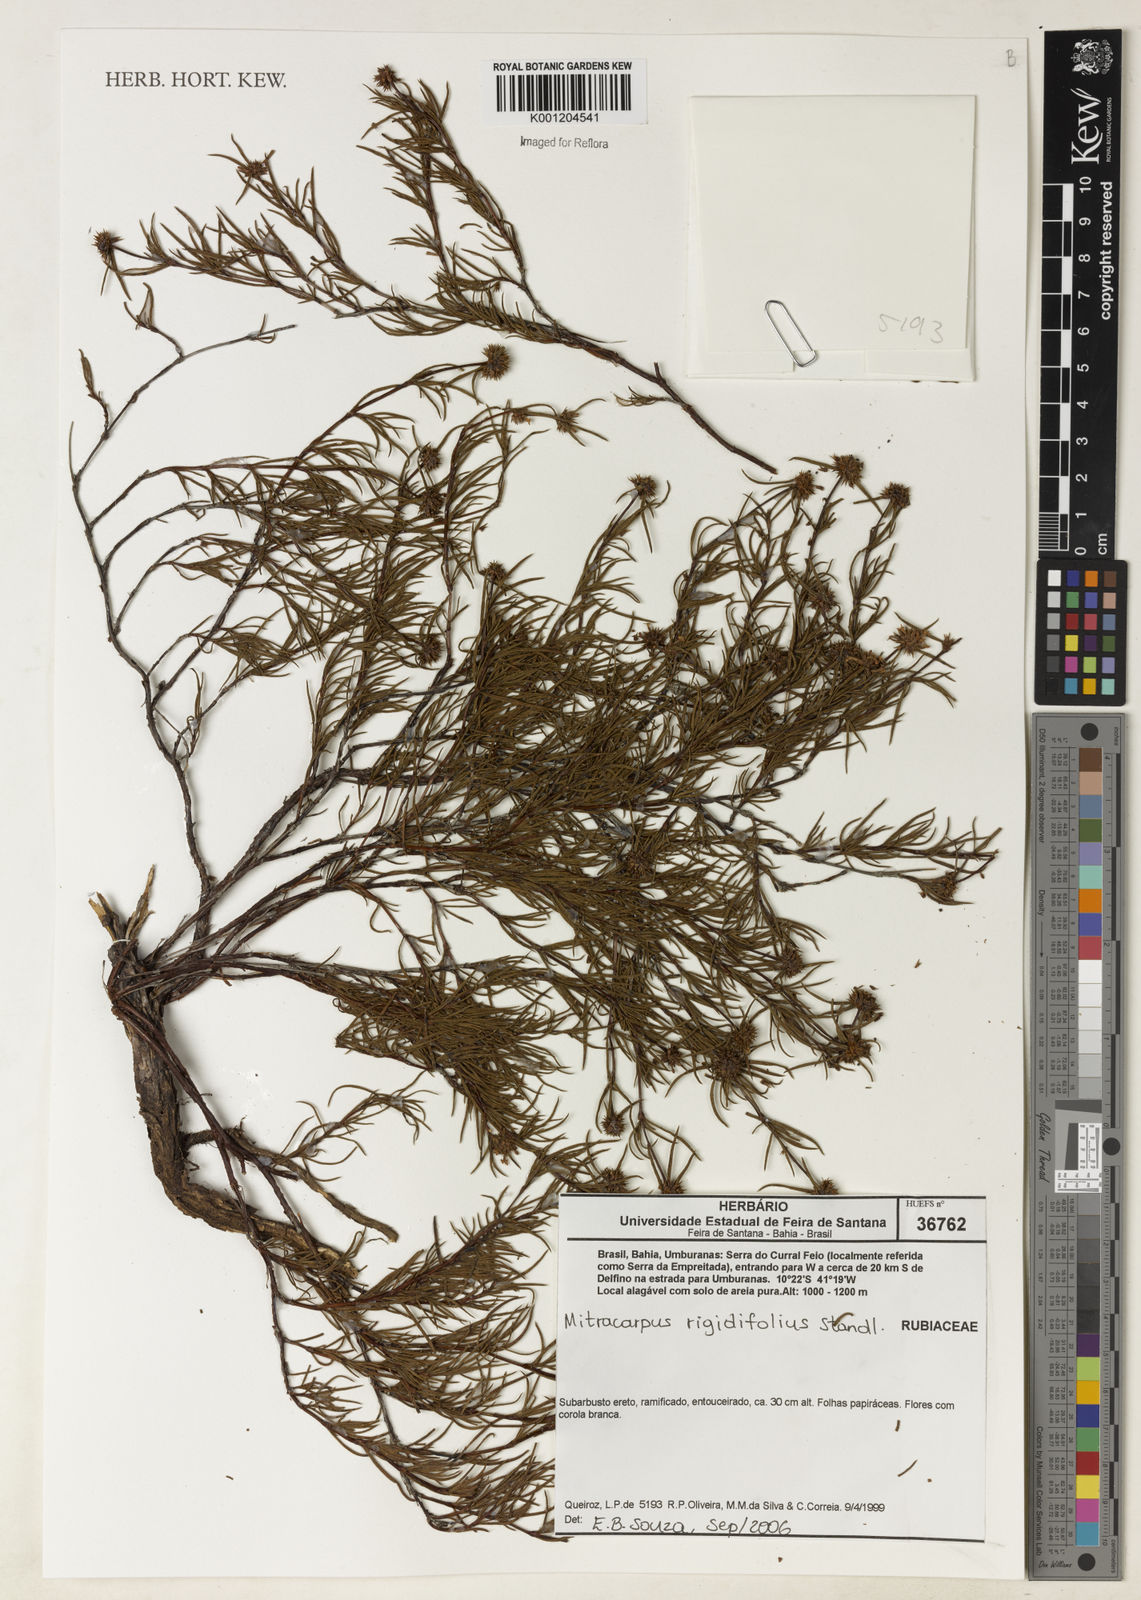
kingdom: Plantae
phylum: Tracheophyta
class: Magnoliopsida
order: Gentianales
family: Rubiaceae
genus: Mitracarpus
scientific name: Mitracarpus rigidifolius
